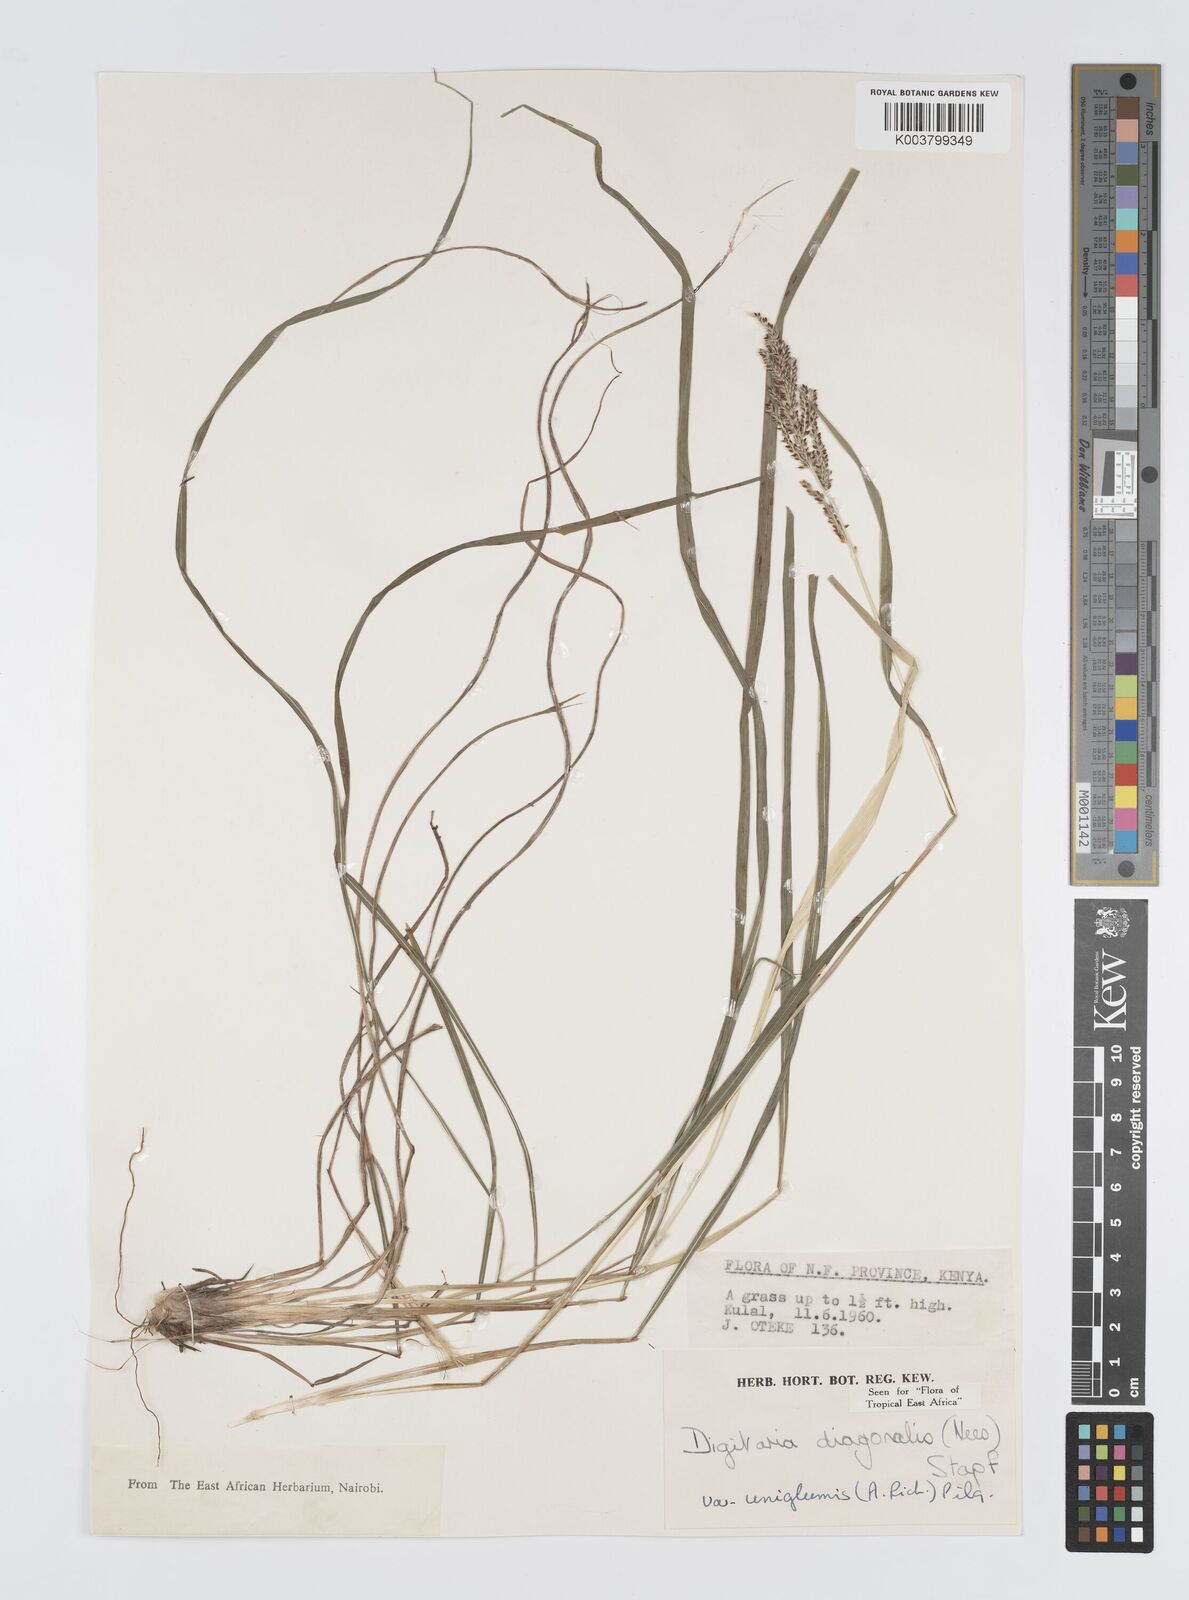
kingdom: Plantae
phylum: Tracheophyta
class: Liliopsida
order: Poales
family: Poaceae
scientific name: Poaceae
